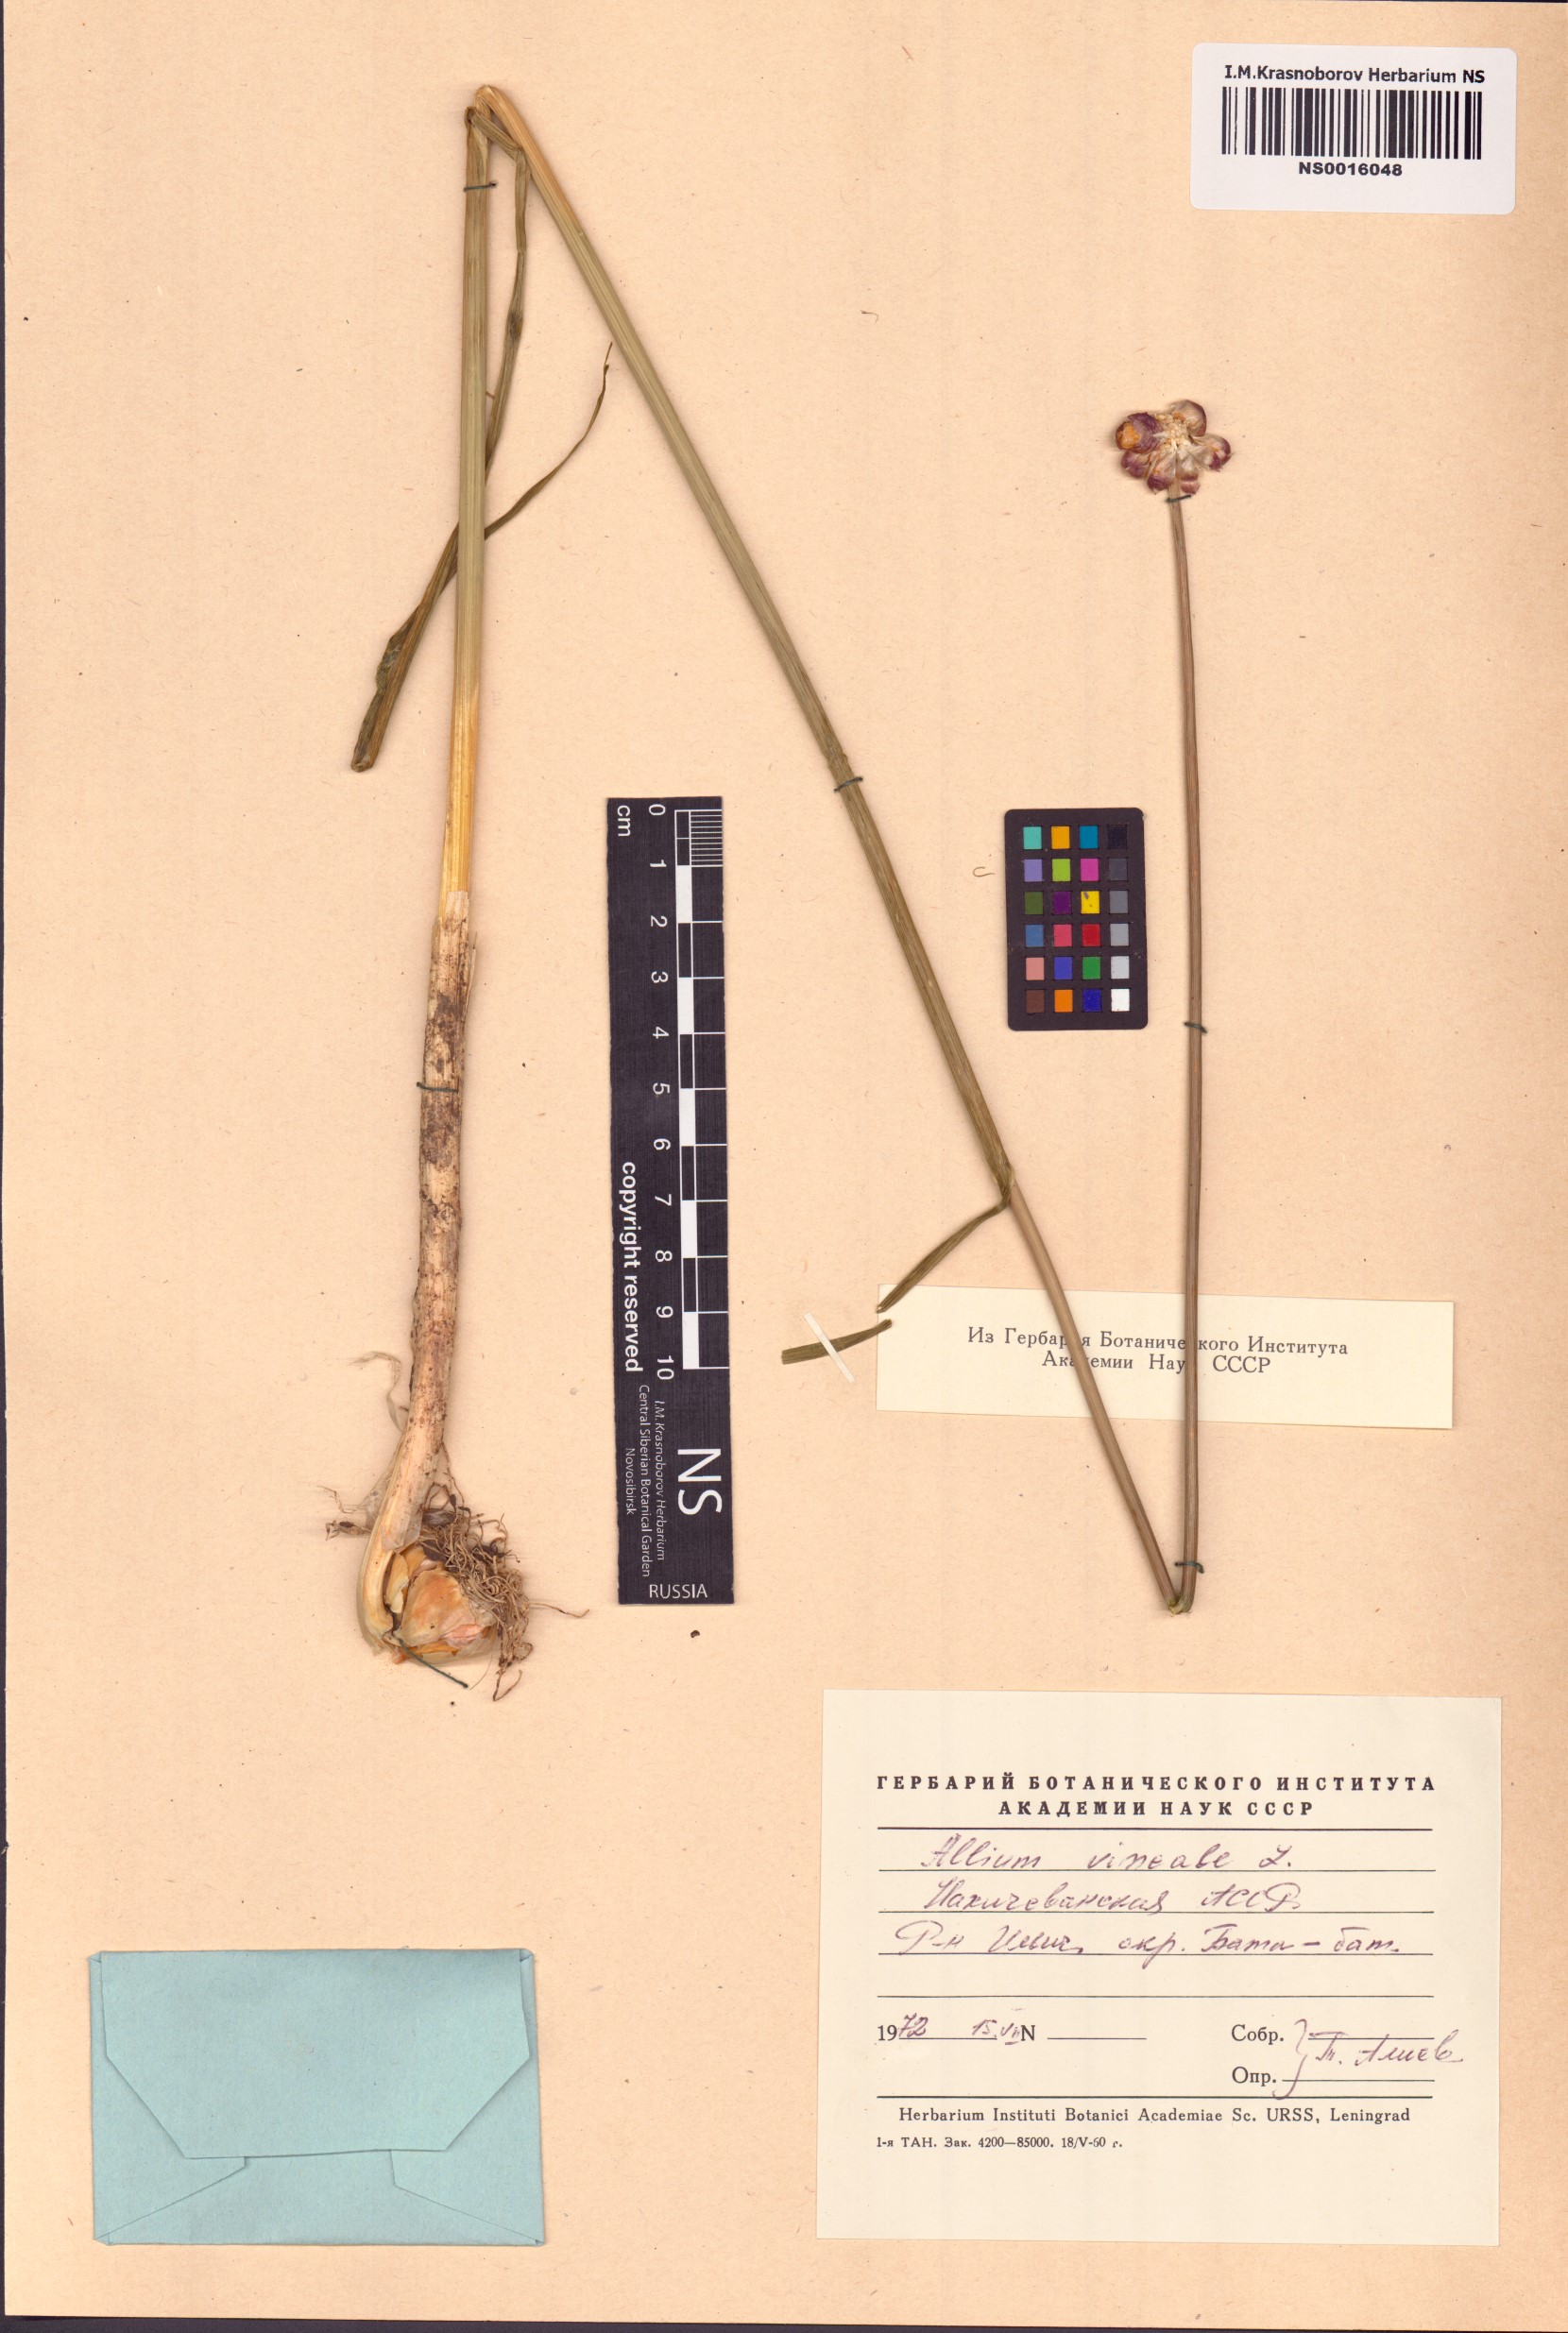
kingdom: Plantae
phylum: Tracheophyta
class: Liliopsida
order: Asparagales
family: Amaryllidaceae
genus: Allium
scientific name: Allium vineale
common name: Crow garlic
